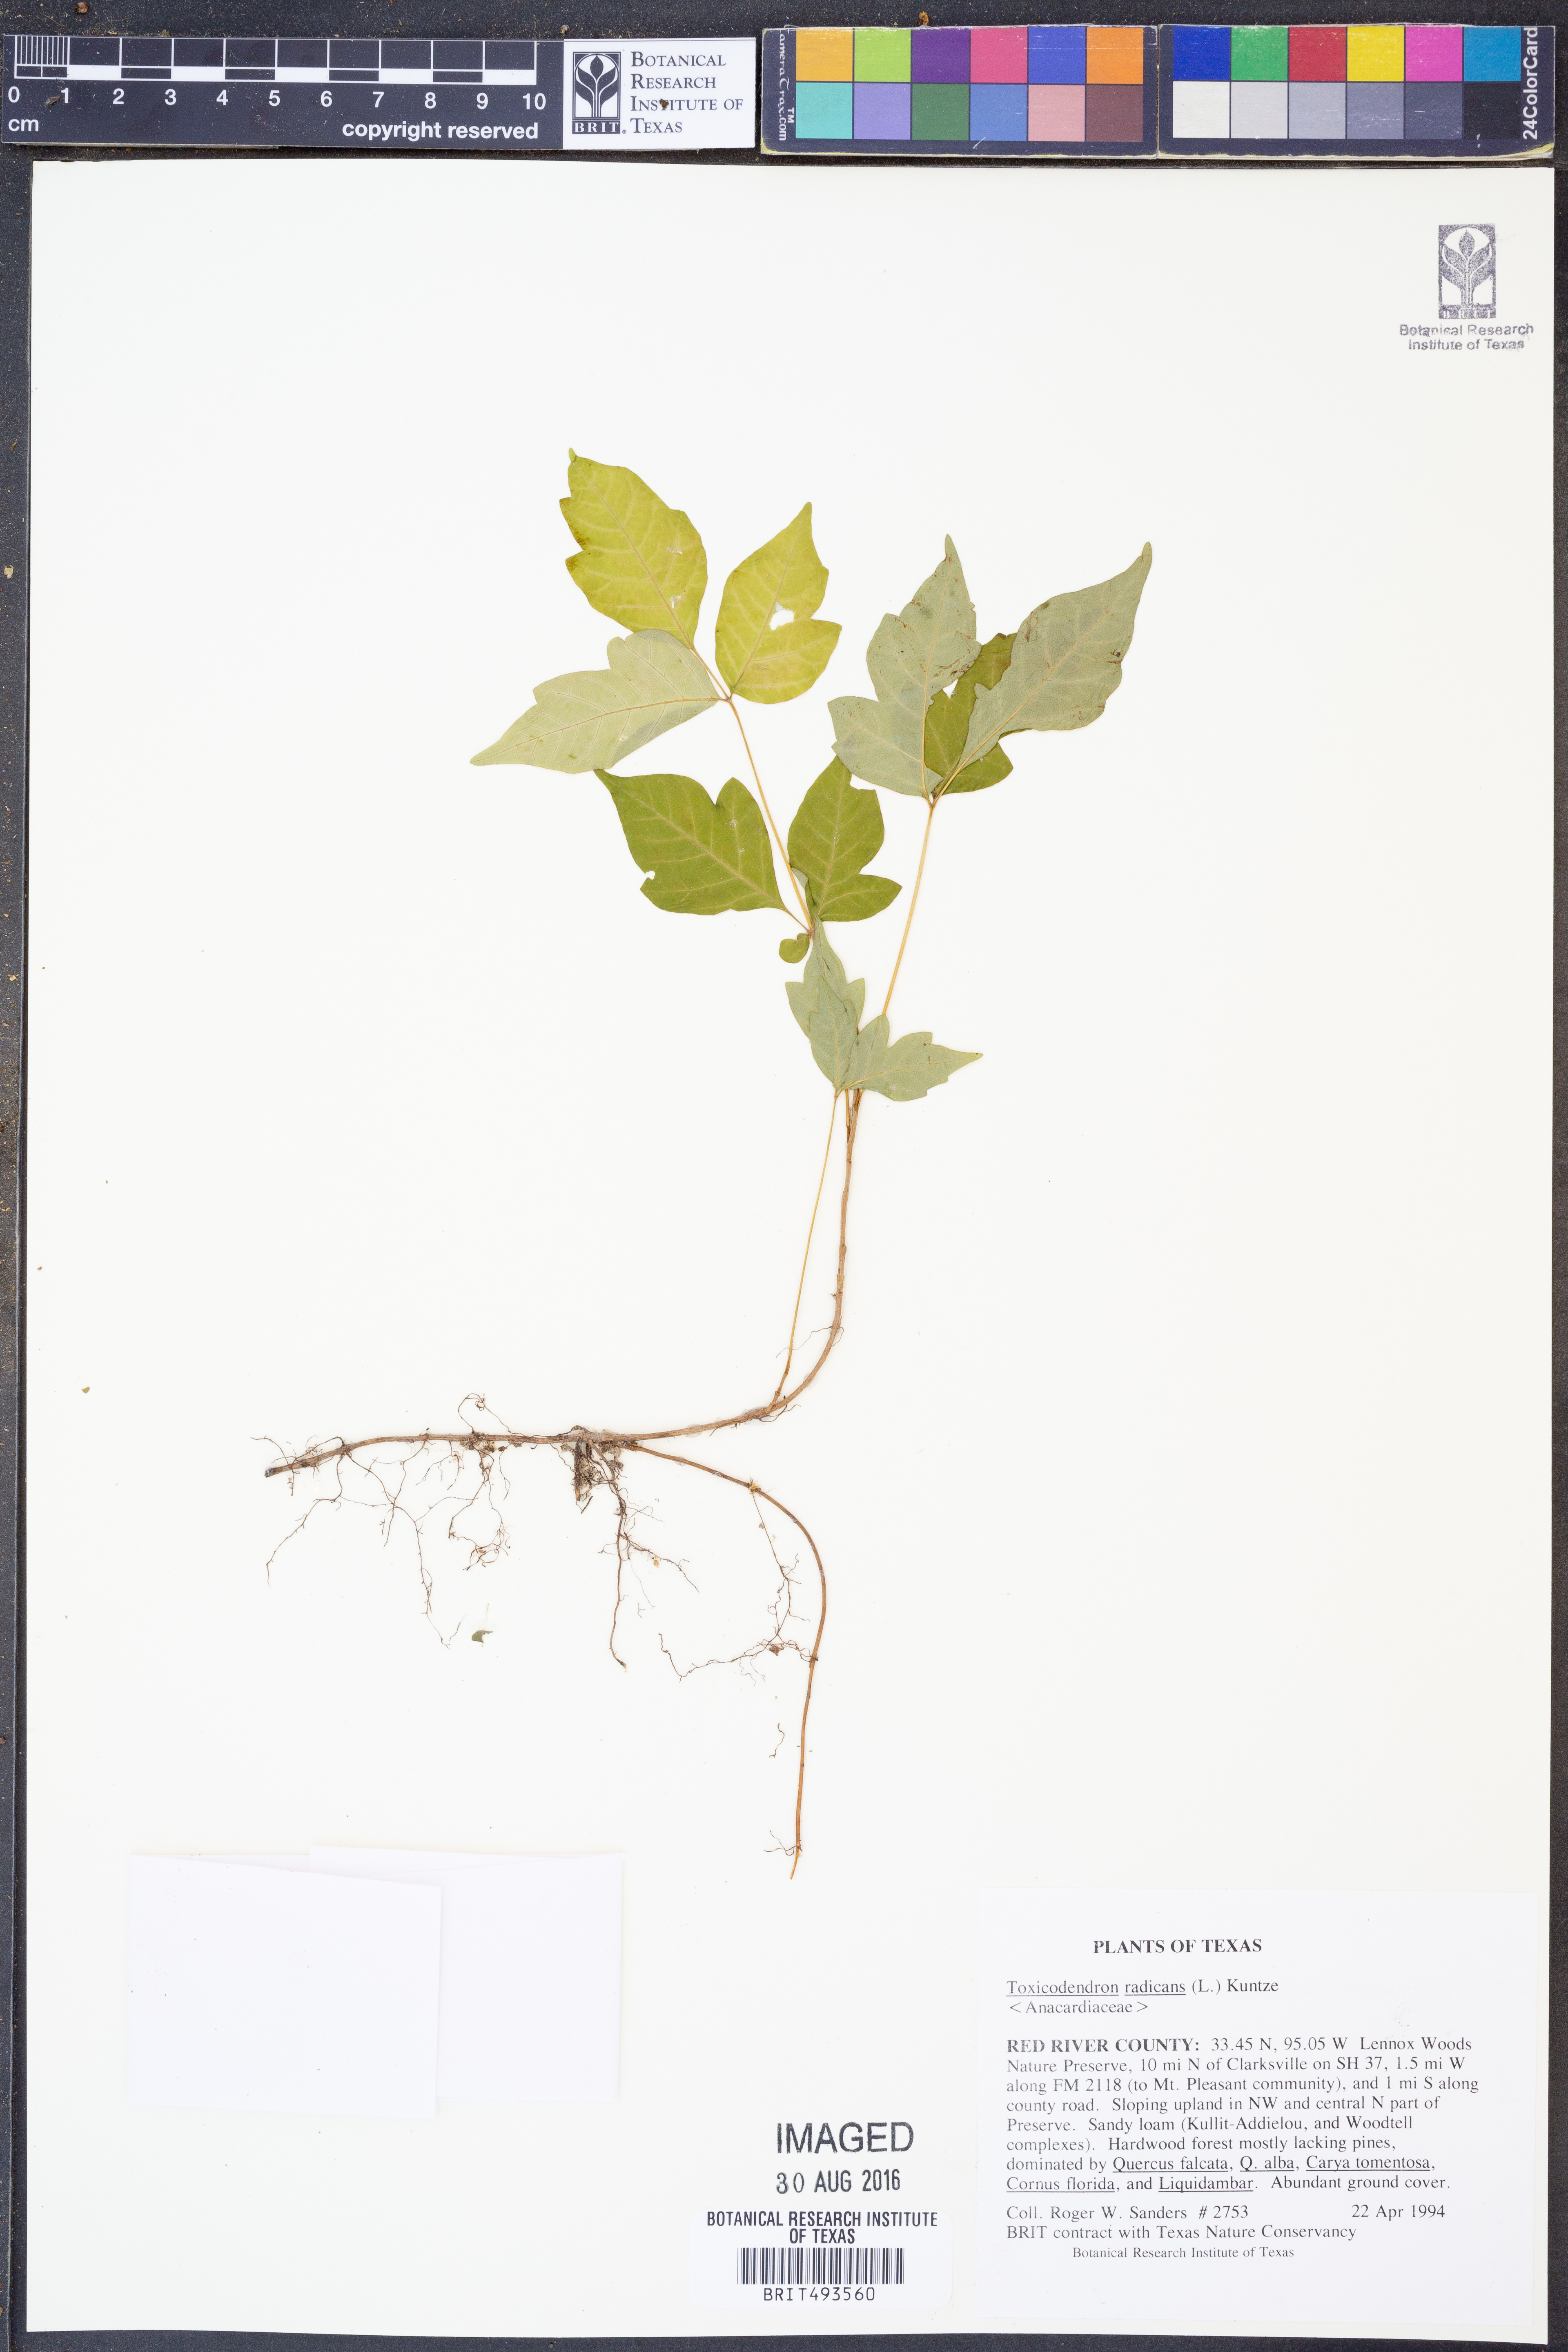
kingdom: Plantae
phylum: Tracheophyta
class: Magnoliopsida
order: Sapindales
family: Anacardiaceae
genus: Toxicodendron
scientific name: Toxicodendron radicans
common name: Poison ivy
